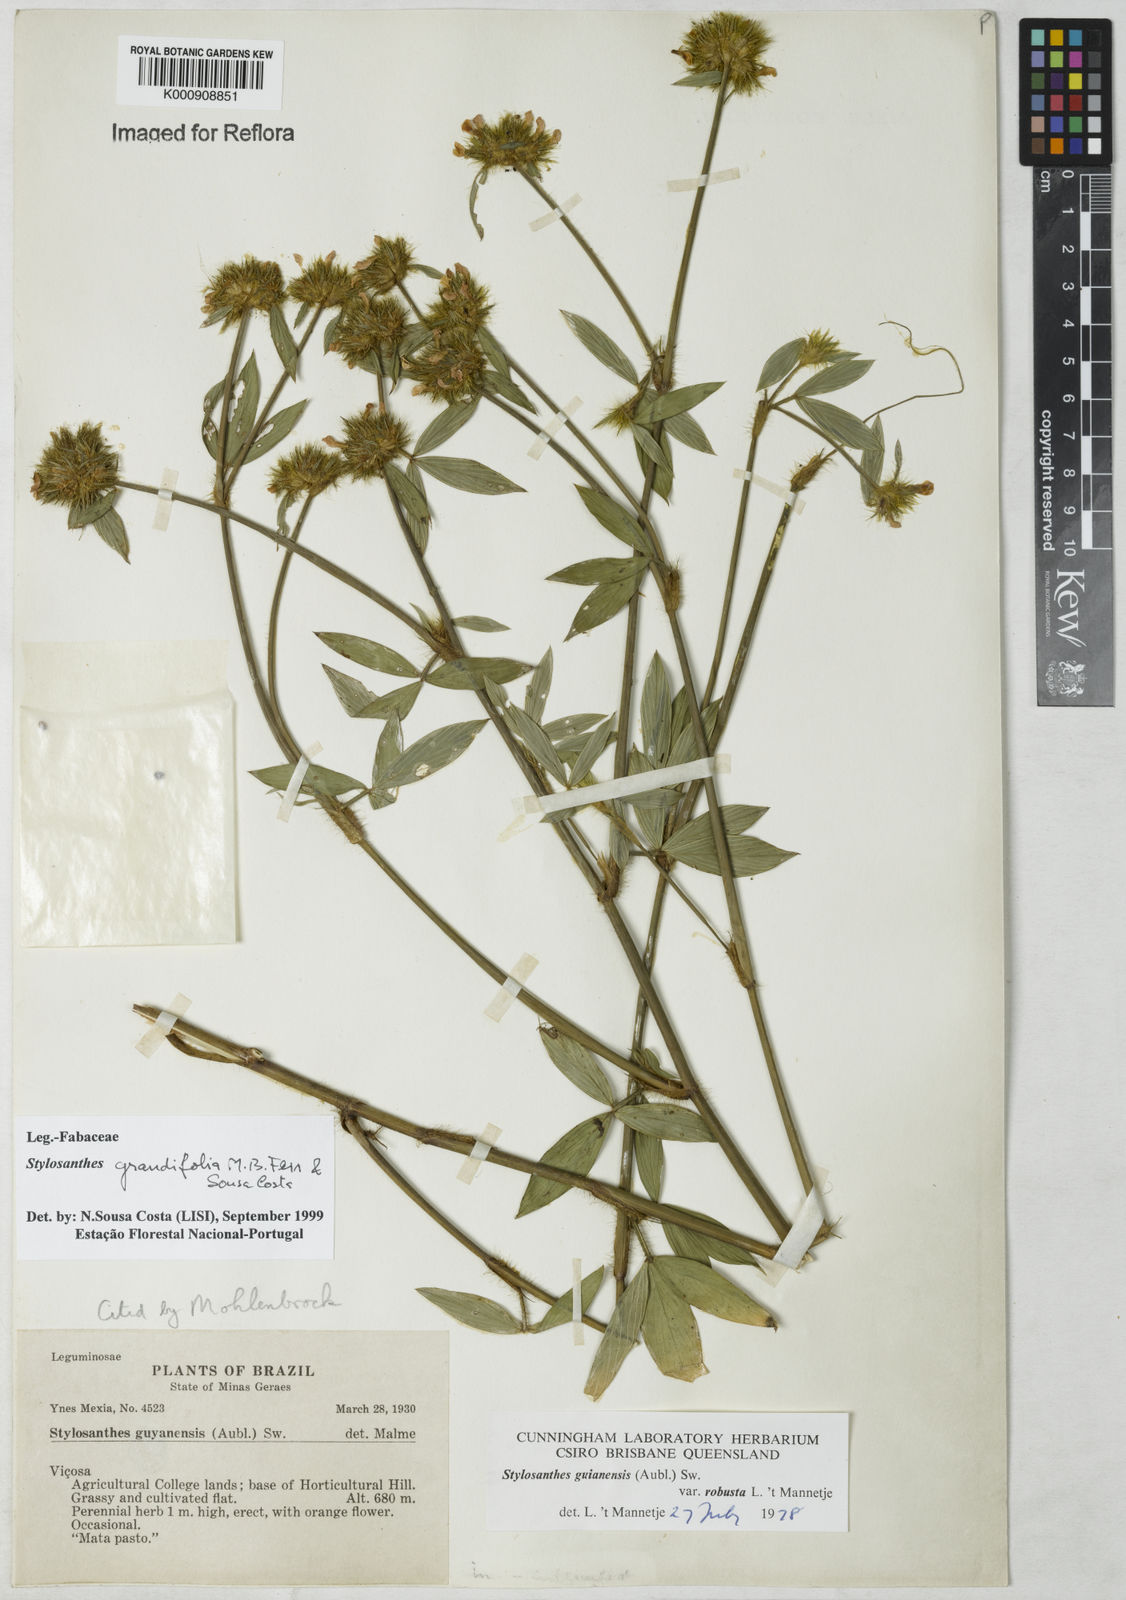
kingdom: Plantae
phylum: Tracheophyta
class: Magnoliopsida
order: Fabales
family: Fabaceae
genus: Stylosanthes
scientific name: Stylosanthes guianensis
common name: Pencil flower
